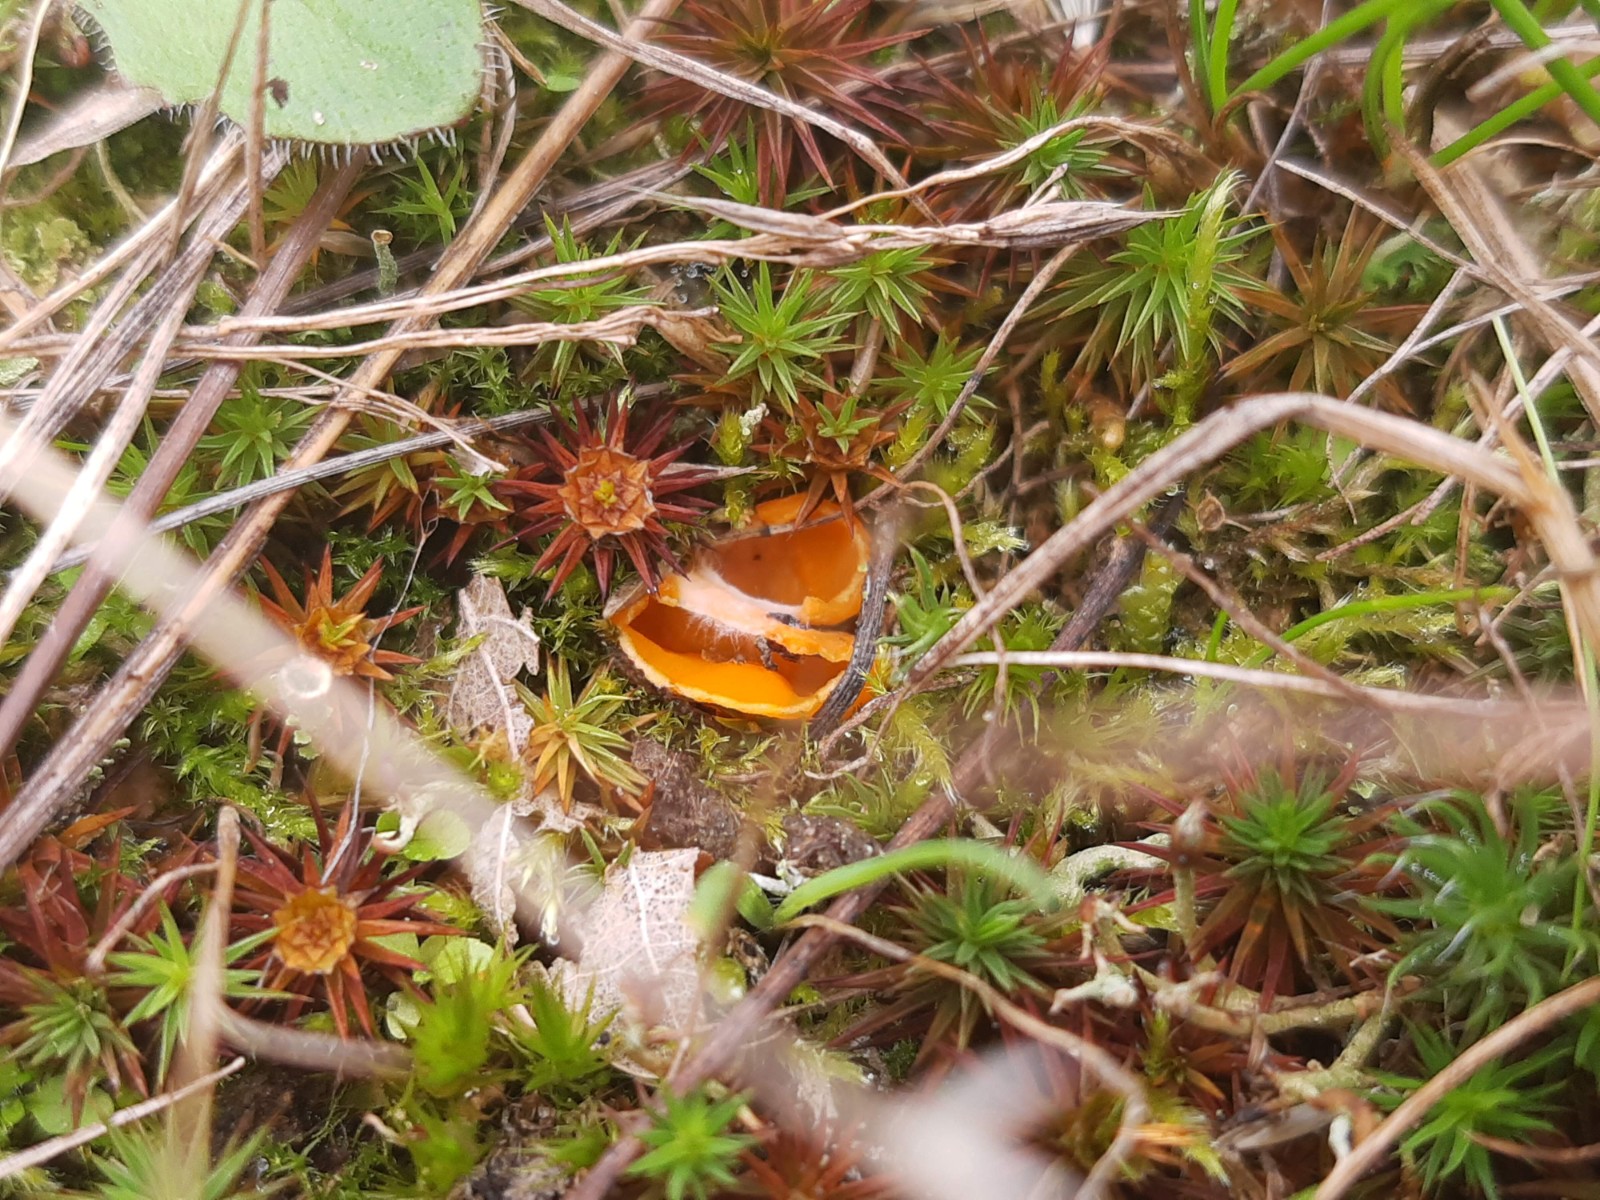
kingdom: Fungi
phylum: Ascomycota
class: Pezizomycetes
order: Pezizales
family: Pyronemataceae
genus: Neottiella
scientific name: Neottiella rutilans
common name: jomfruhår-mosbæger
